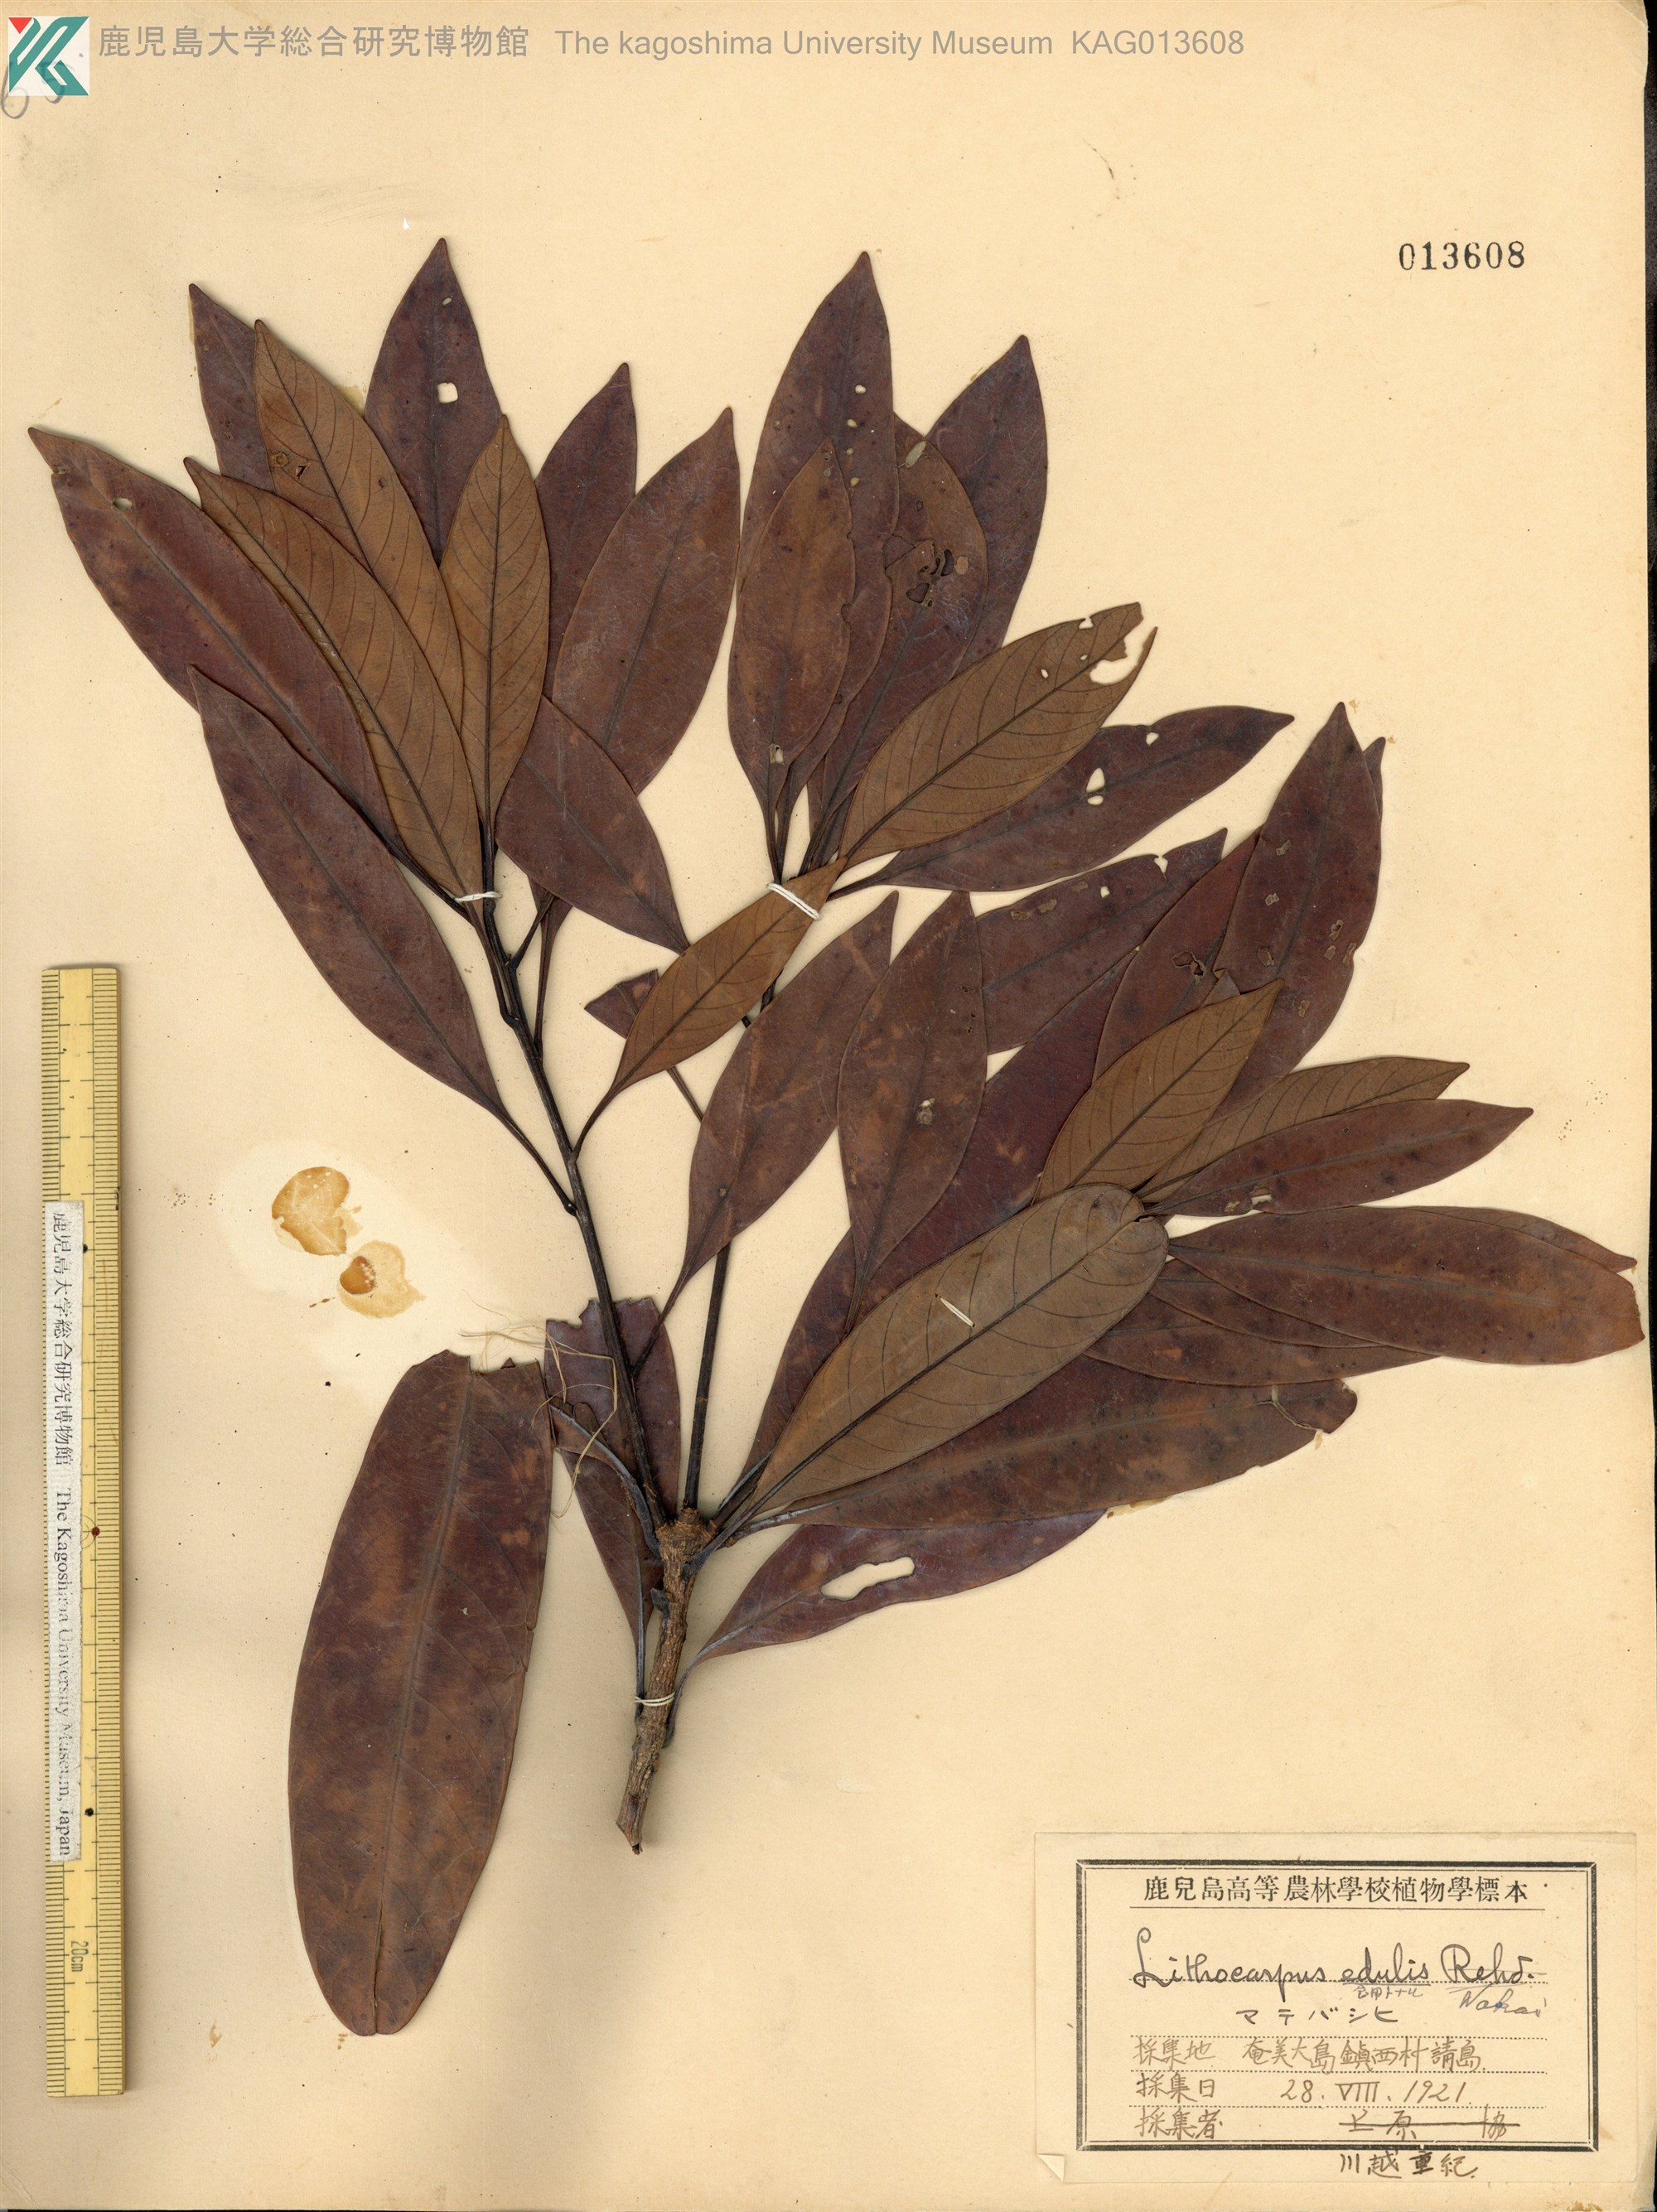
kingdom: Plantae
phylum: Tracheophyta
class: Magnoliopsida
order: Fagales
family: Fagaceae
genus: Lithocarpus
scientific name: Lithocarpus edulis
